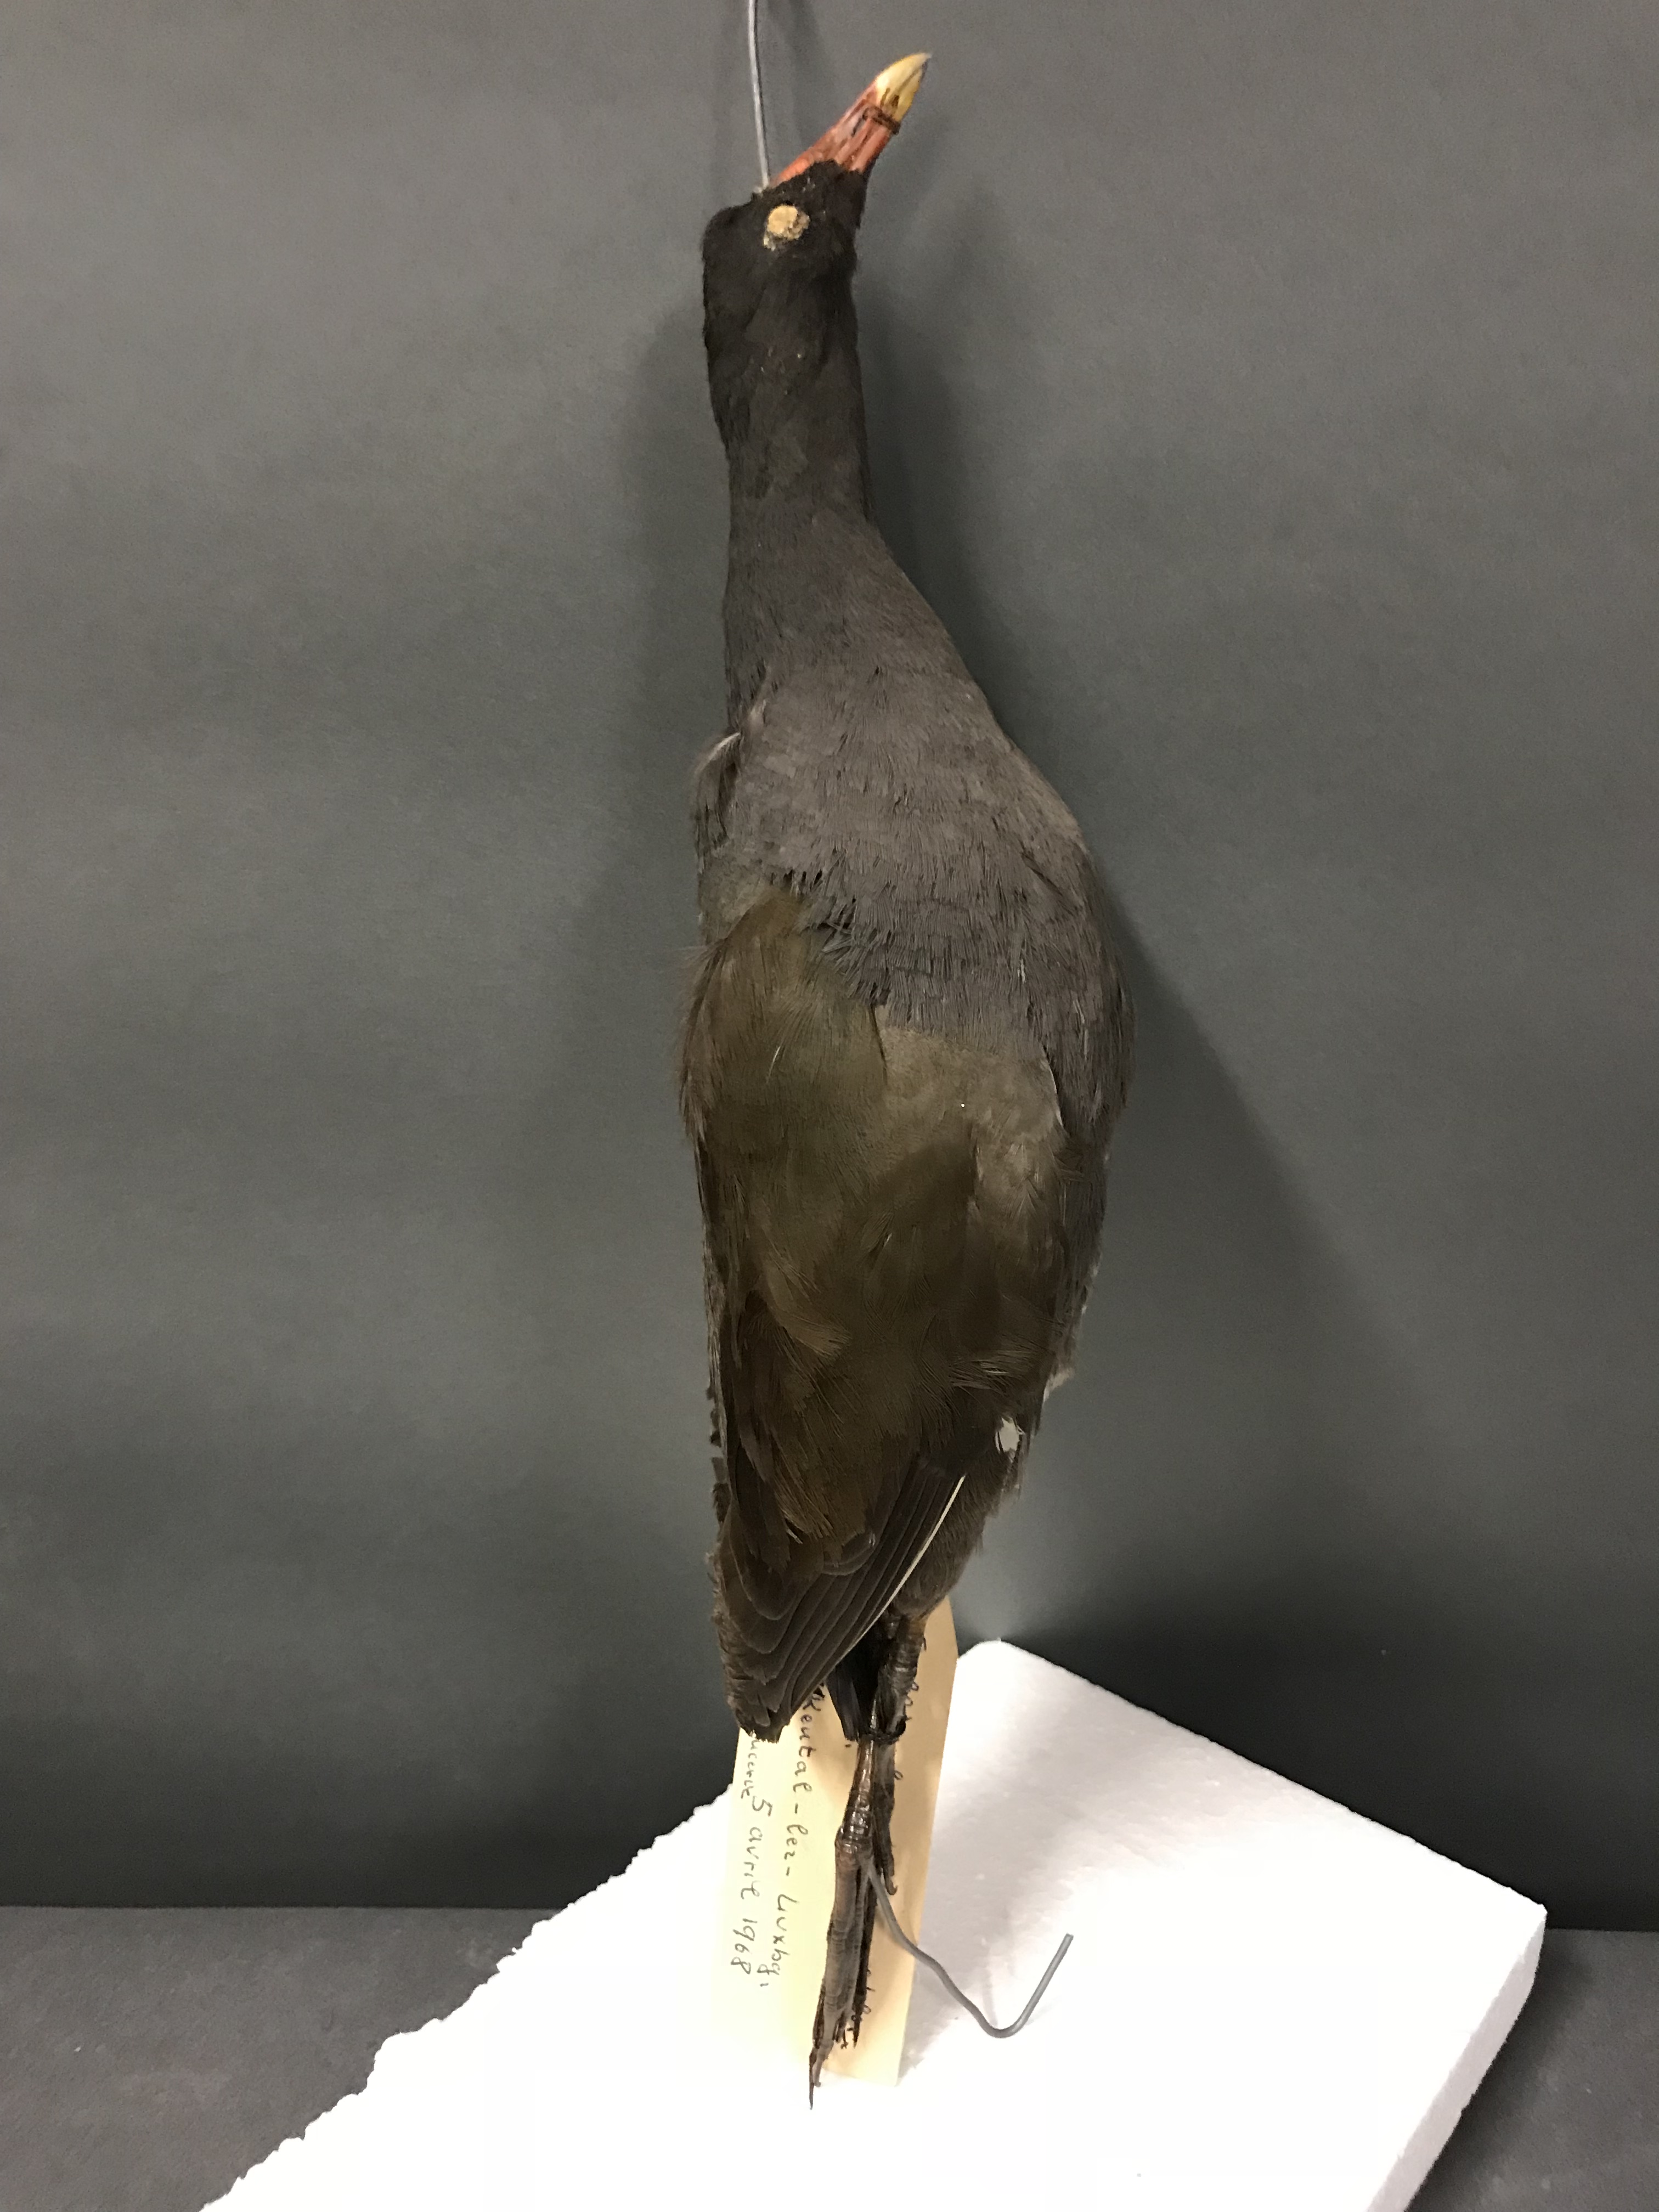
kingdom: Animalia
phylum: Chordata
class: Aves
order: Gruiformes
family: Rallidae
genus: Gallinula
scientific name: Gallinula chloropus
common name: Common moorhen
